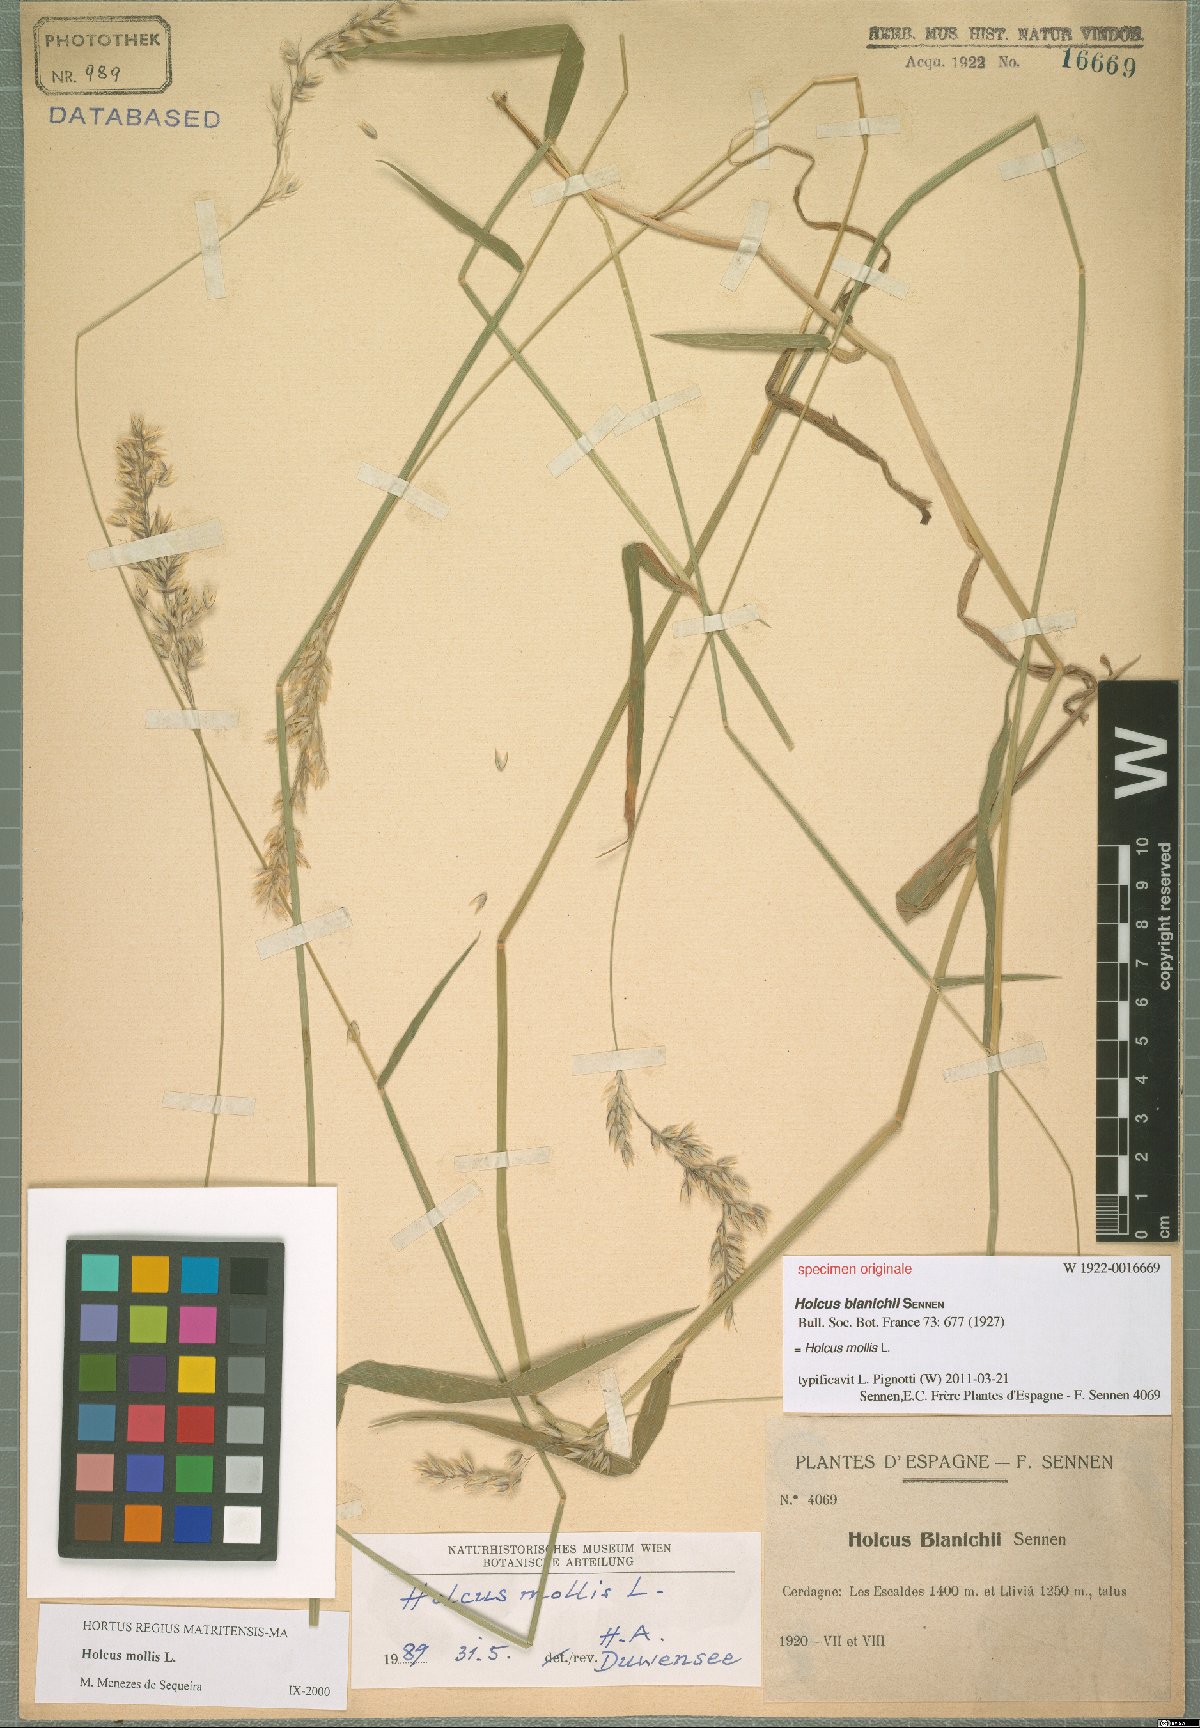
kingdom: Plantae
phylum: Tracheophyta
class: Liliopsida
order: Poales
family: Poaceae
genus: Holcus
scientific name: Holcus mollis
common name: Creeping velvetgrass
